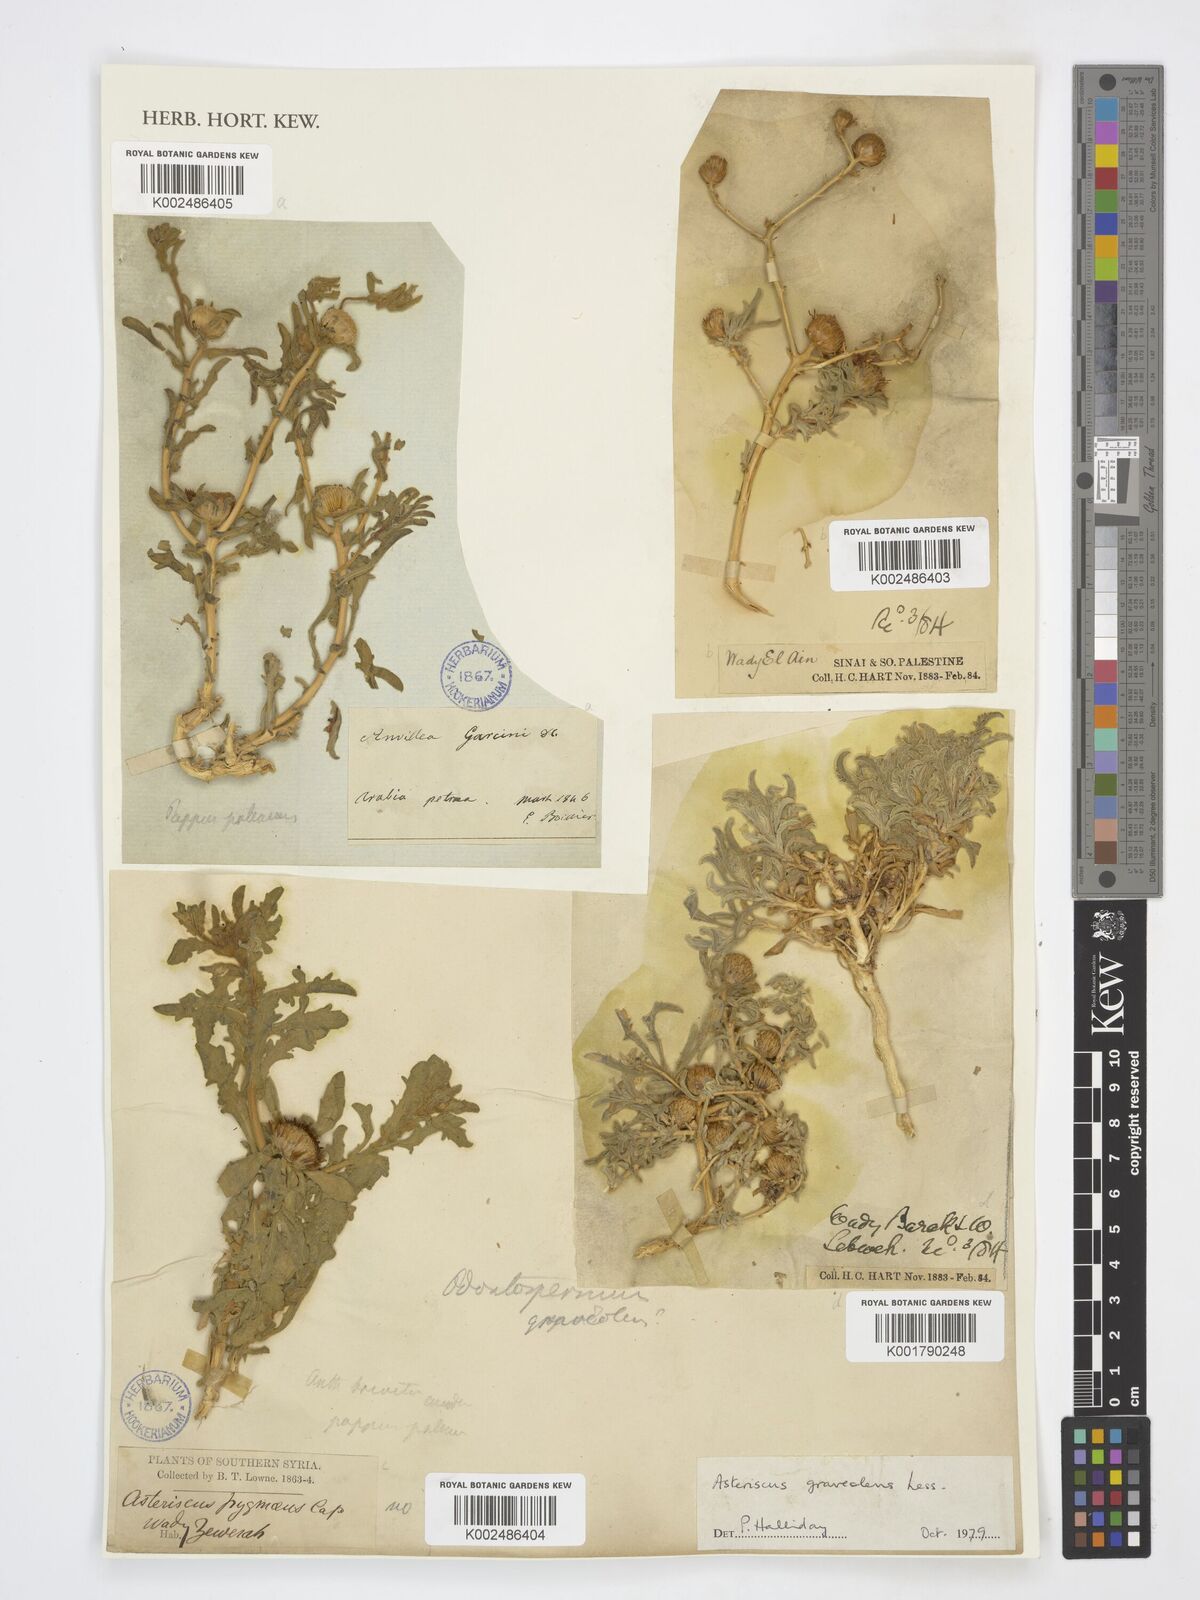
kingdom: Plantae
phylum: Tracheophyta
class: Magnoliopsida
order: Asterales
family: Asteraceae
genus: Anvillea
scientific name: Anvillea garcinii
